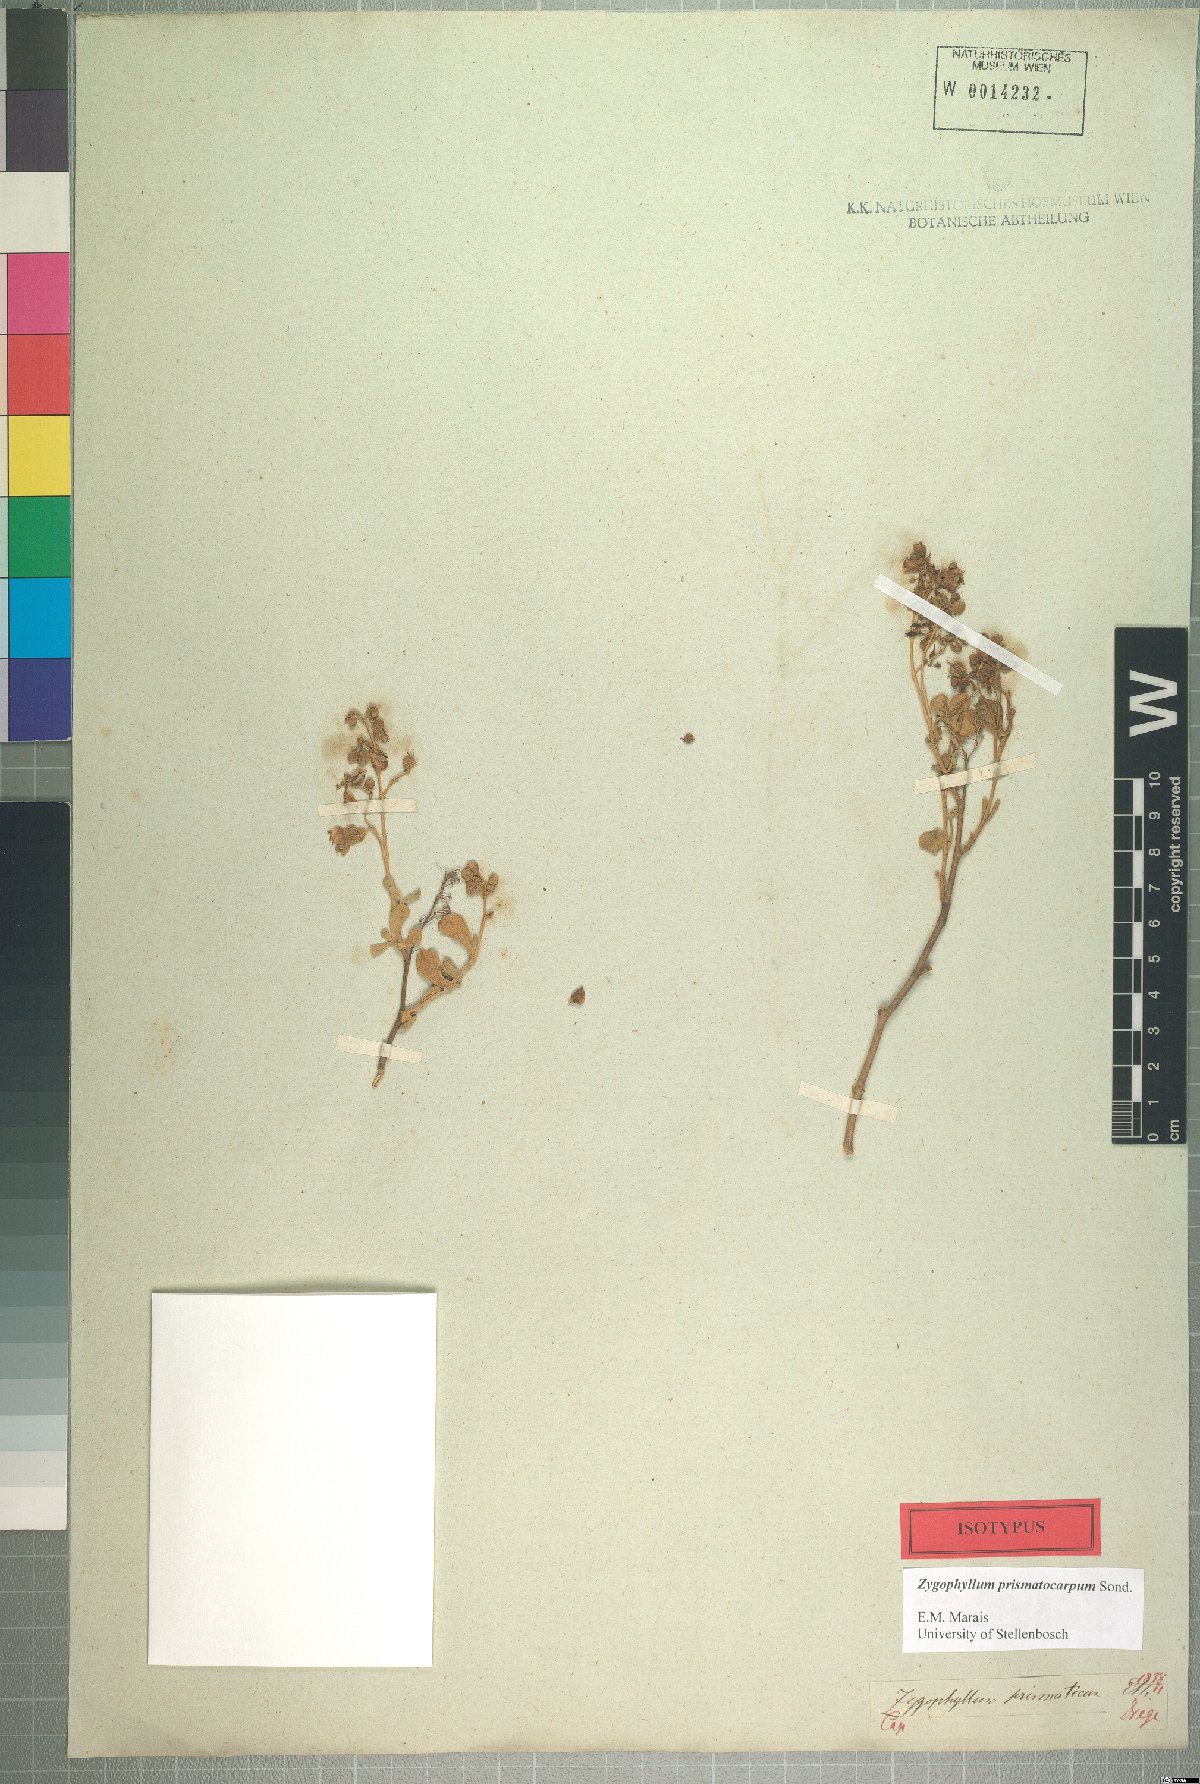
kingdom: Plantae
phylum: Tracheophyta
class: Magnoliopsida
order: Zygophyllales
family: Zygophyllaceae
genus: Tetraena
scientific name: Tetraena prismatocarpa
